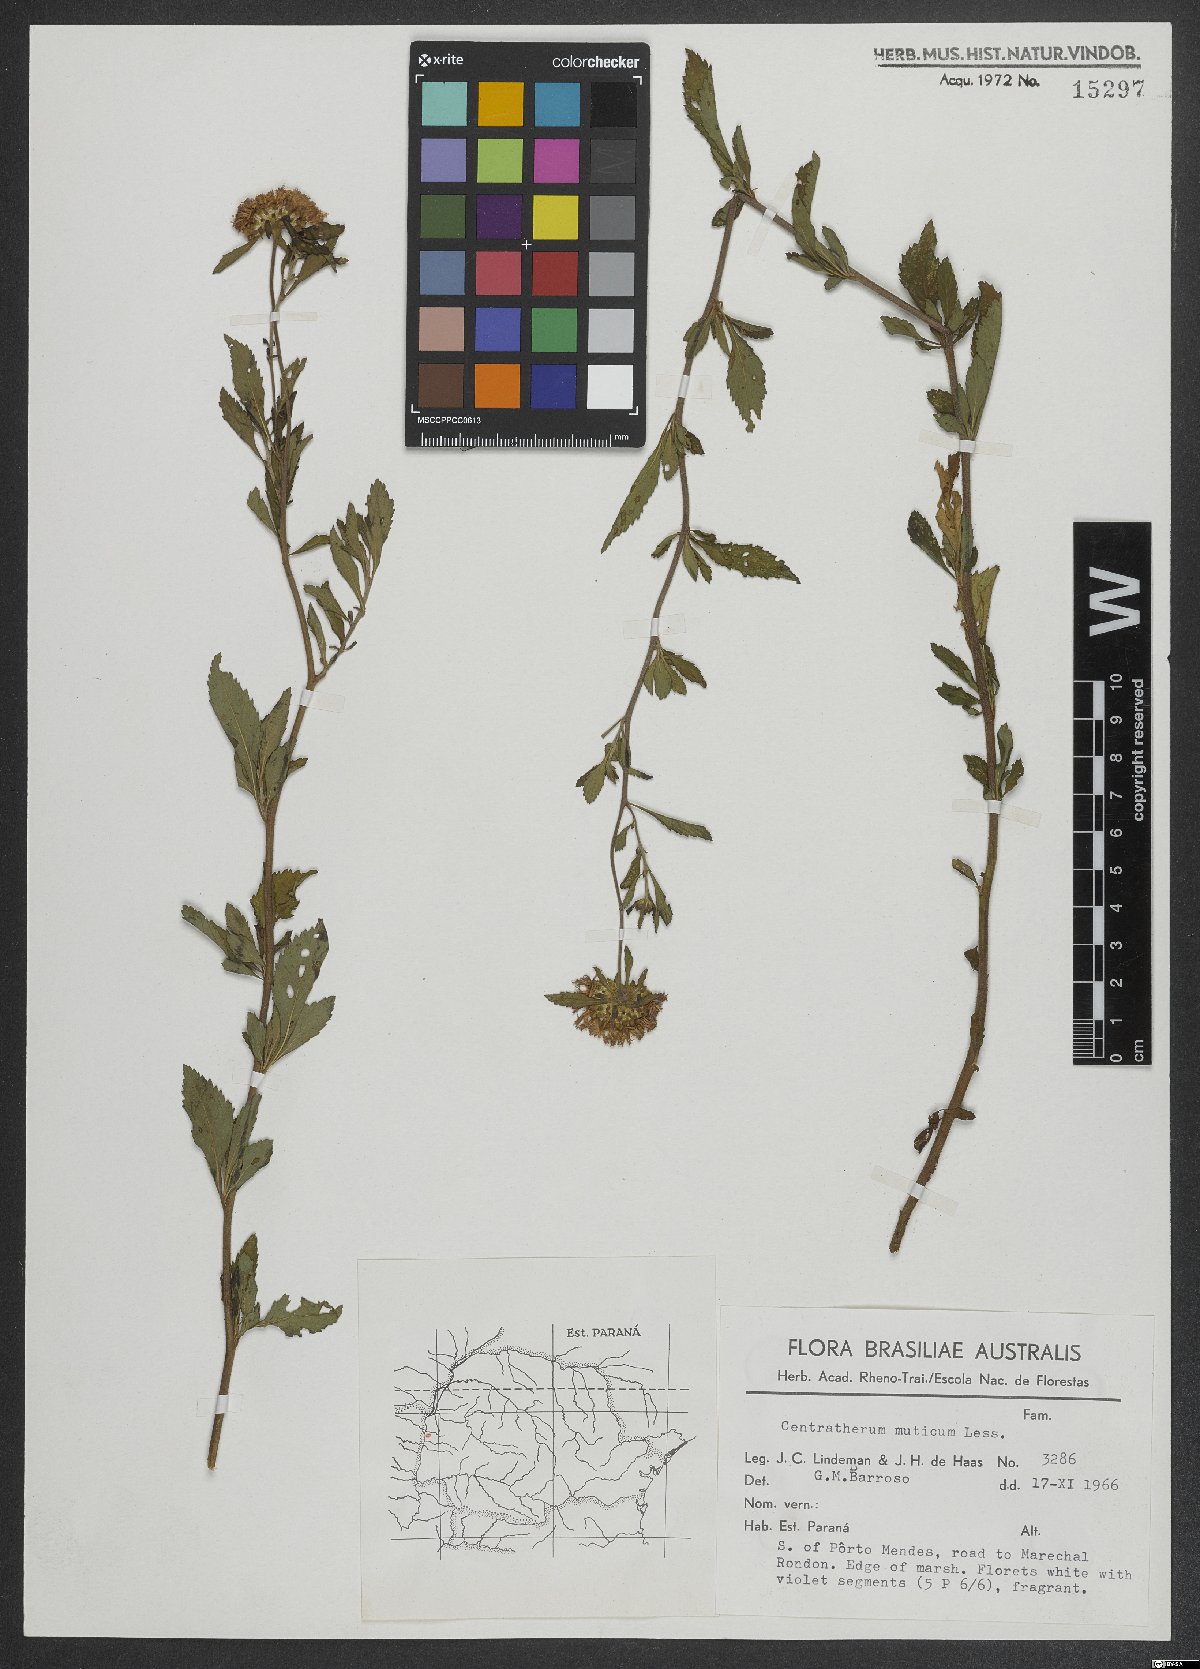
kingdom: Plantae
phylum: Tracheophyta
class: Magnoliopsida
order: Asterales
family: Asteraceae
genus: Centratherum
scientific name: Centratherum punctatum
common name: Larkdaisy
